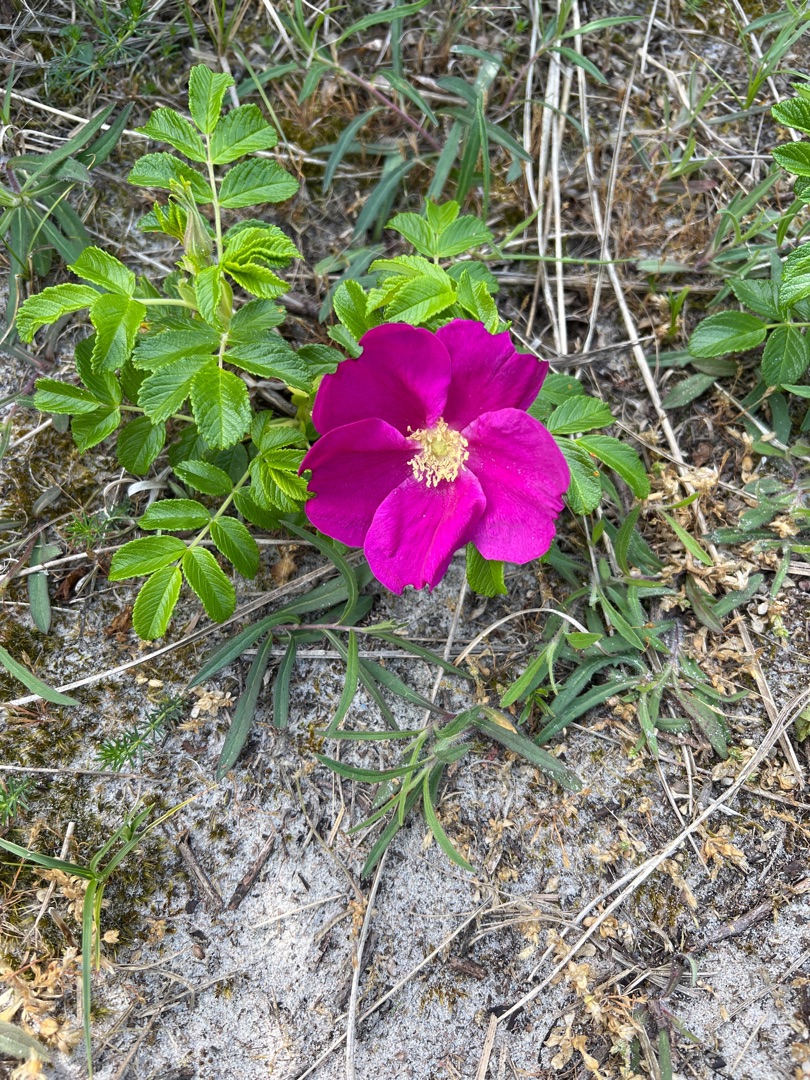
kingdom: Plantae
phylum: Tracheophyta
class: Magnoliopsida
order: Rosales
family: Rosaceae
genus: Rosa
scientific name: Rosa rugosa
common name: Rynket rose
